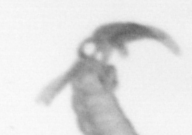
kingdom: Animalia
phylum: Annelida
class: Polychaeta
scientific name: Polychaeta
